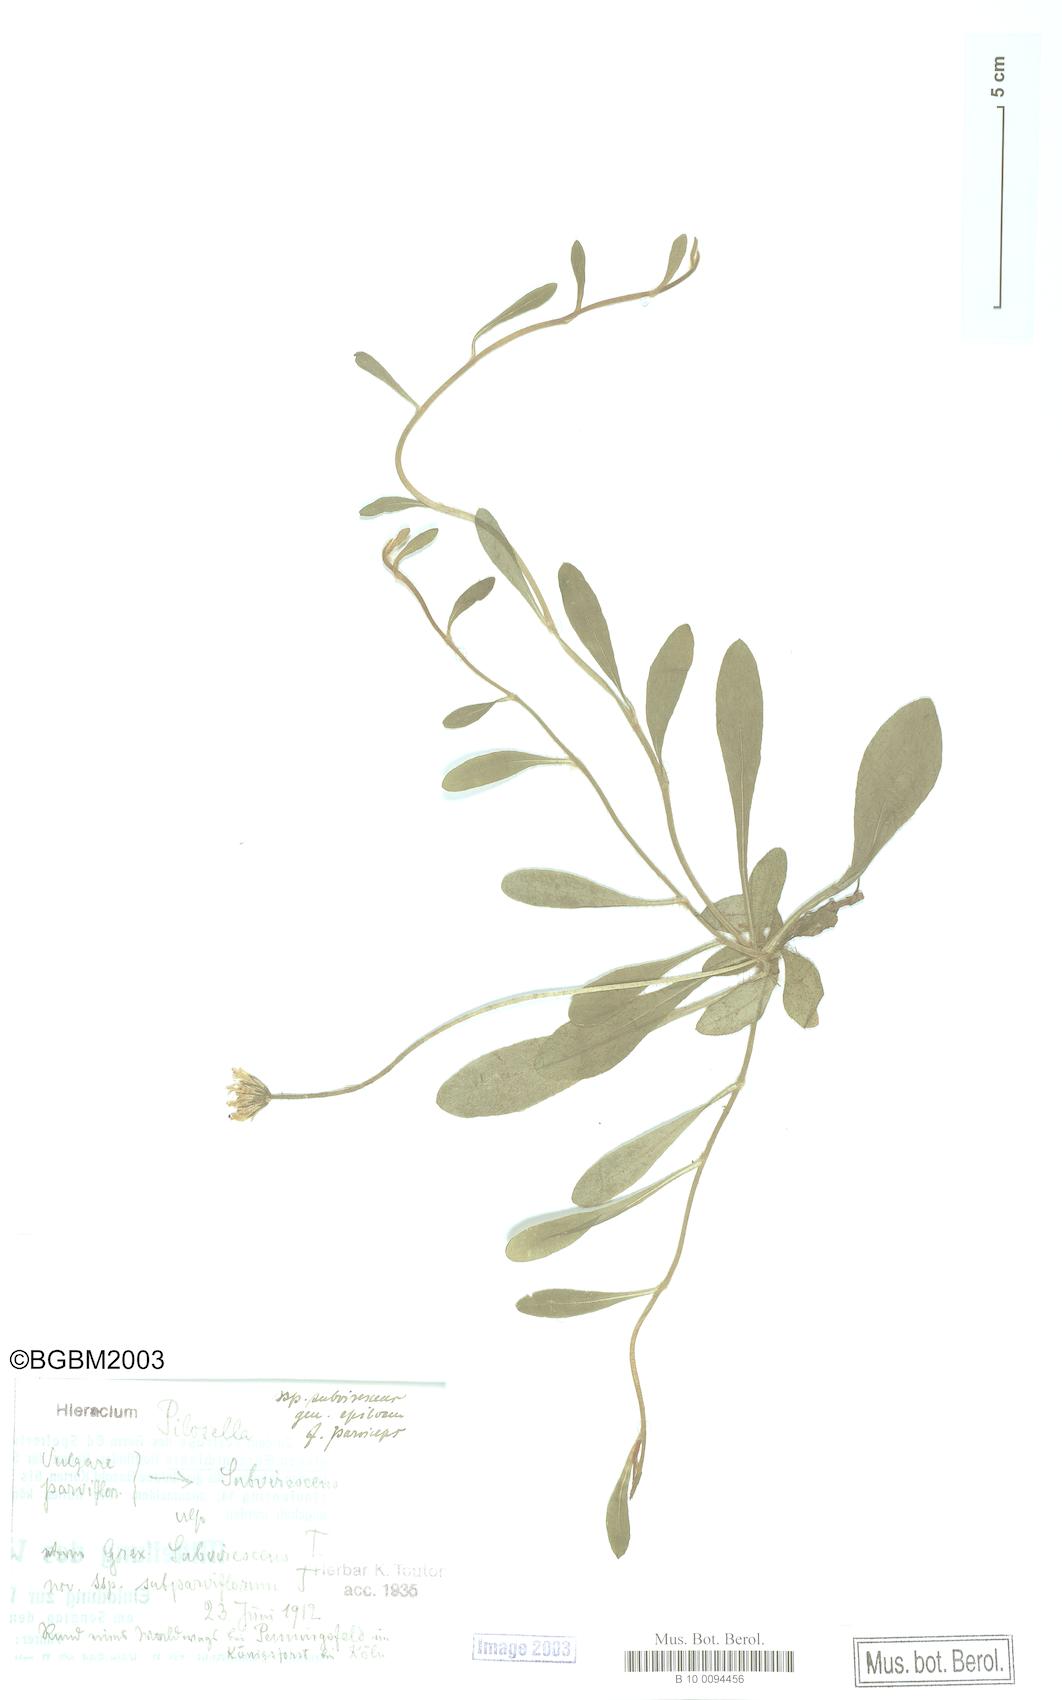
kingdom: Plantae
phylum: Tracheophyta
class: Magnoliopsida
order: Asterales
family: Asteraceae
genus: Pilosella
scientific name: Pilosella officinarum
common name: Mouse-ear hawkweed
